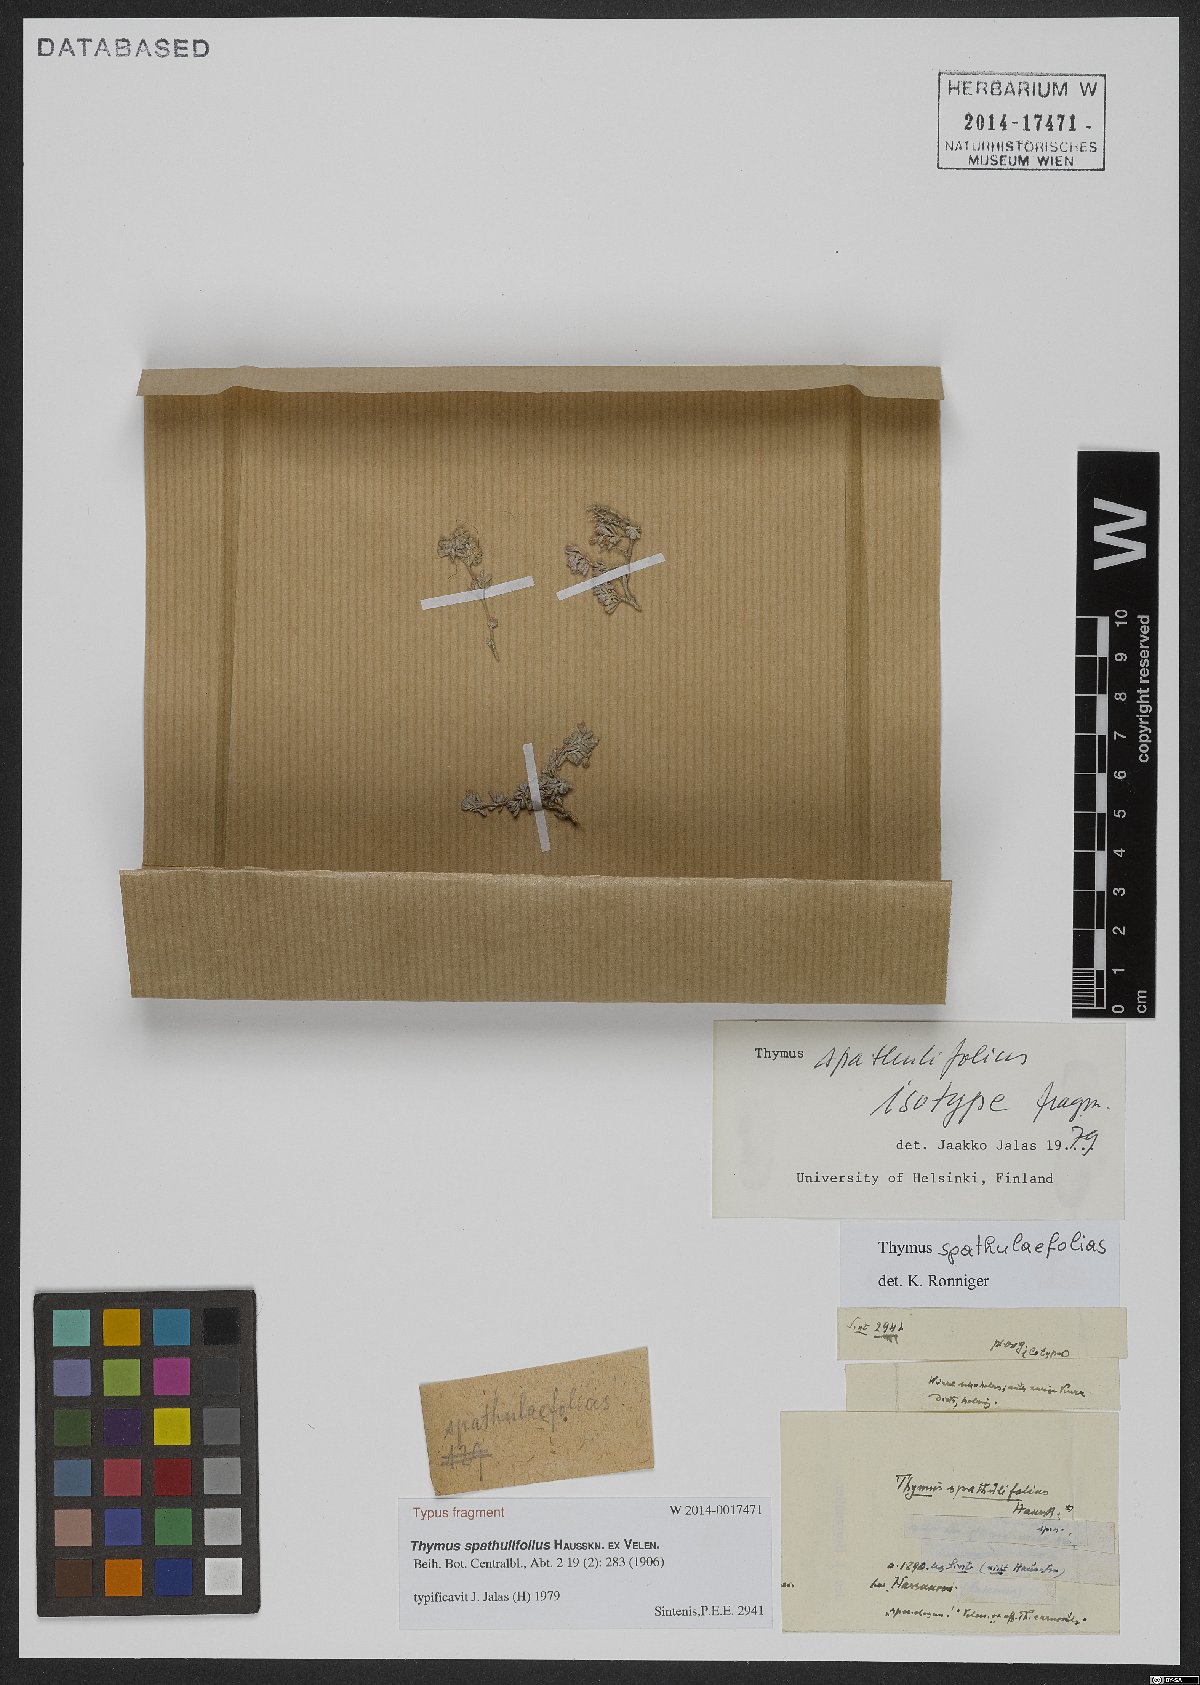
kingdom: Plantae
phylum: Tracheophyta
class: Magnoliopsida
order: Lamiales
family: Lamiaceae
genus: Thymus
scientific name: Thymus spathulifolius
